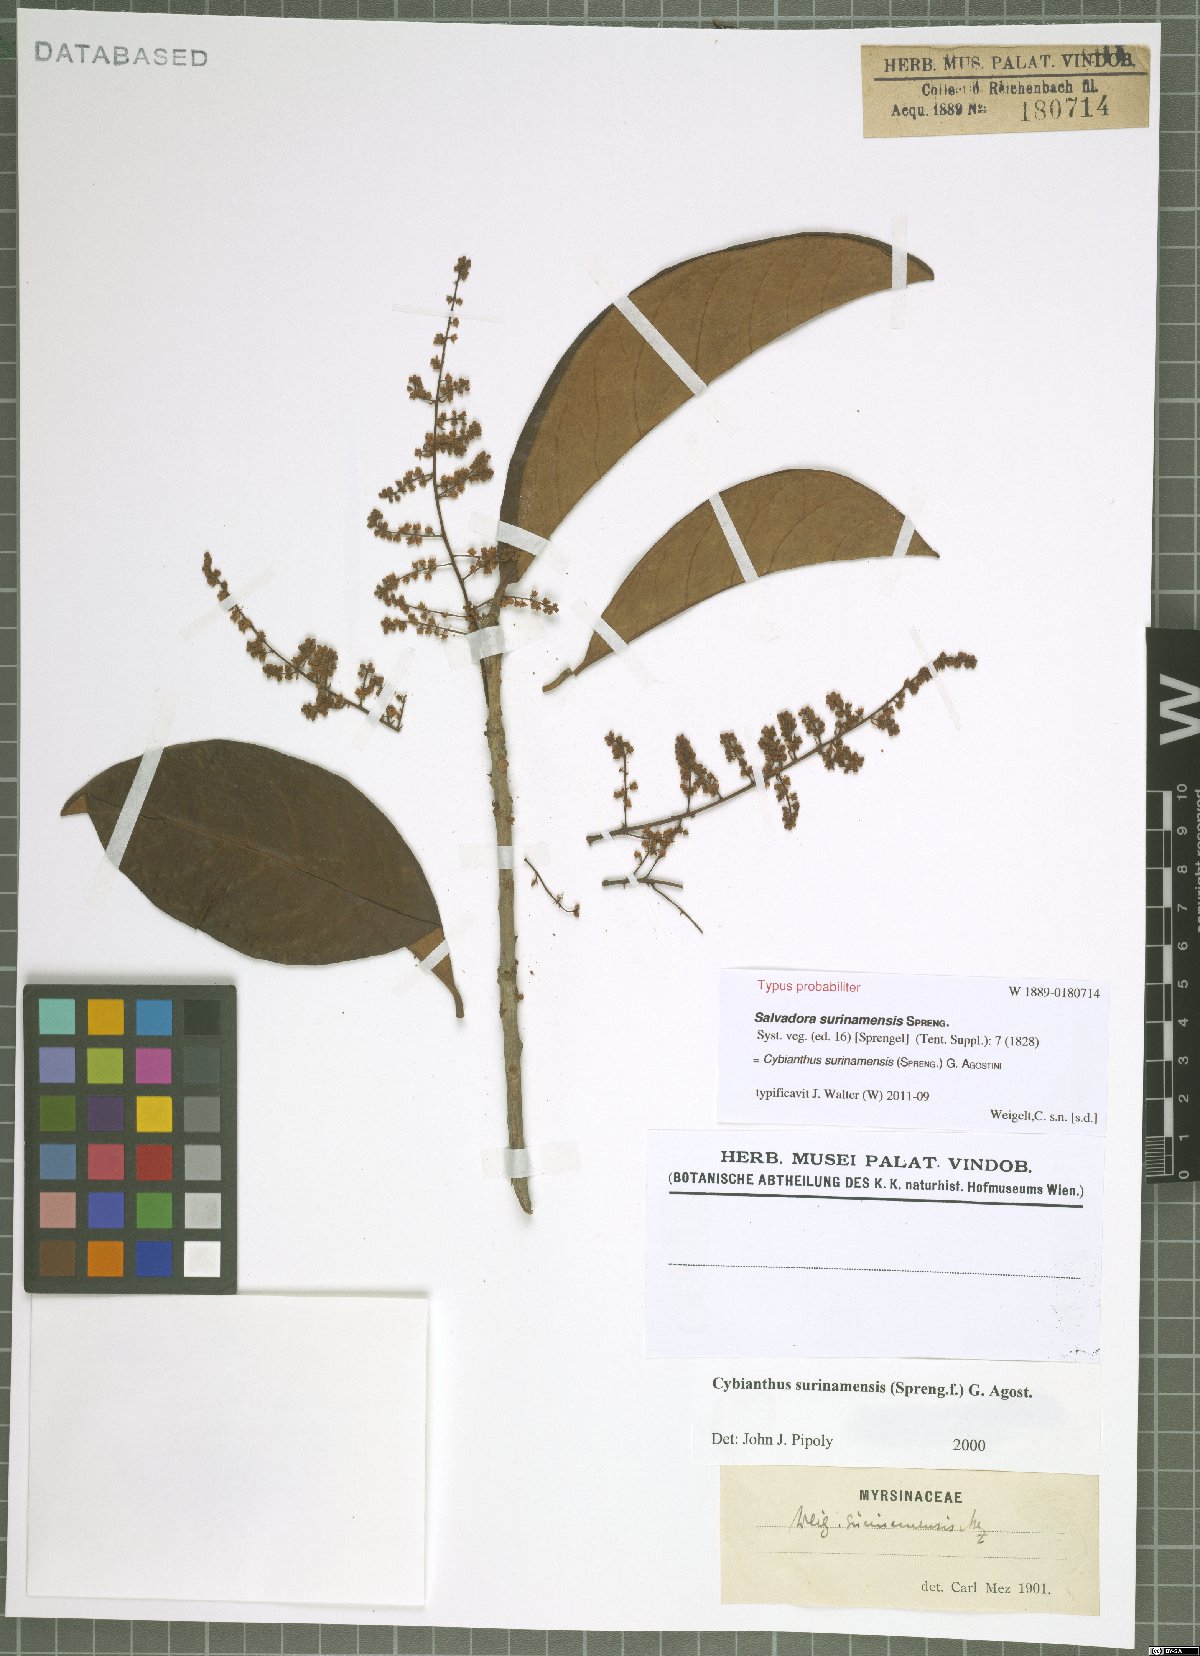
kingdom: Plantae
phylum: Tracheophyta
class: Magnoliopsida
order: Ericales
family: Primulaceae
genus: Cybianthus
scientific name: Cybianthus surinamensis
